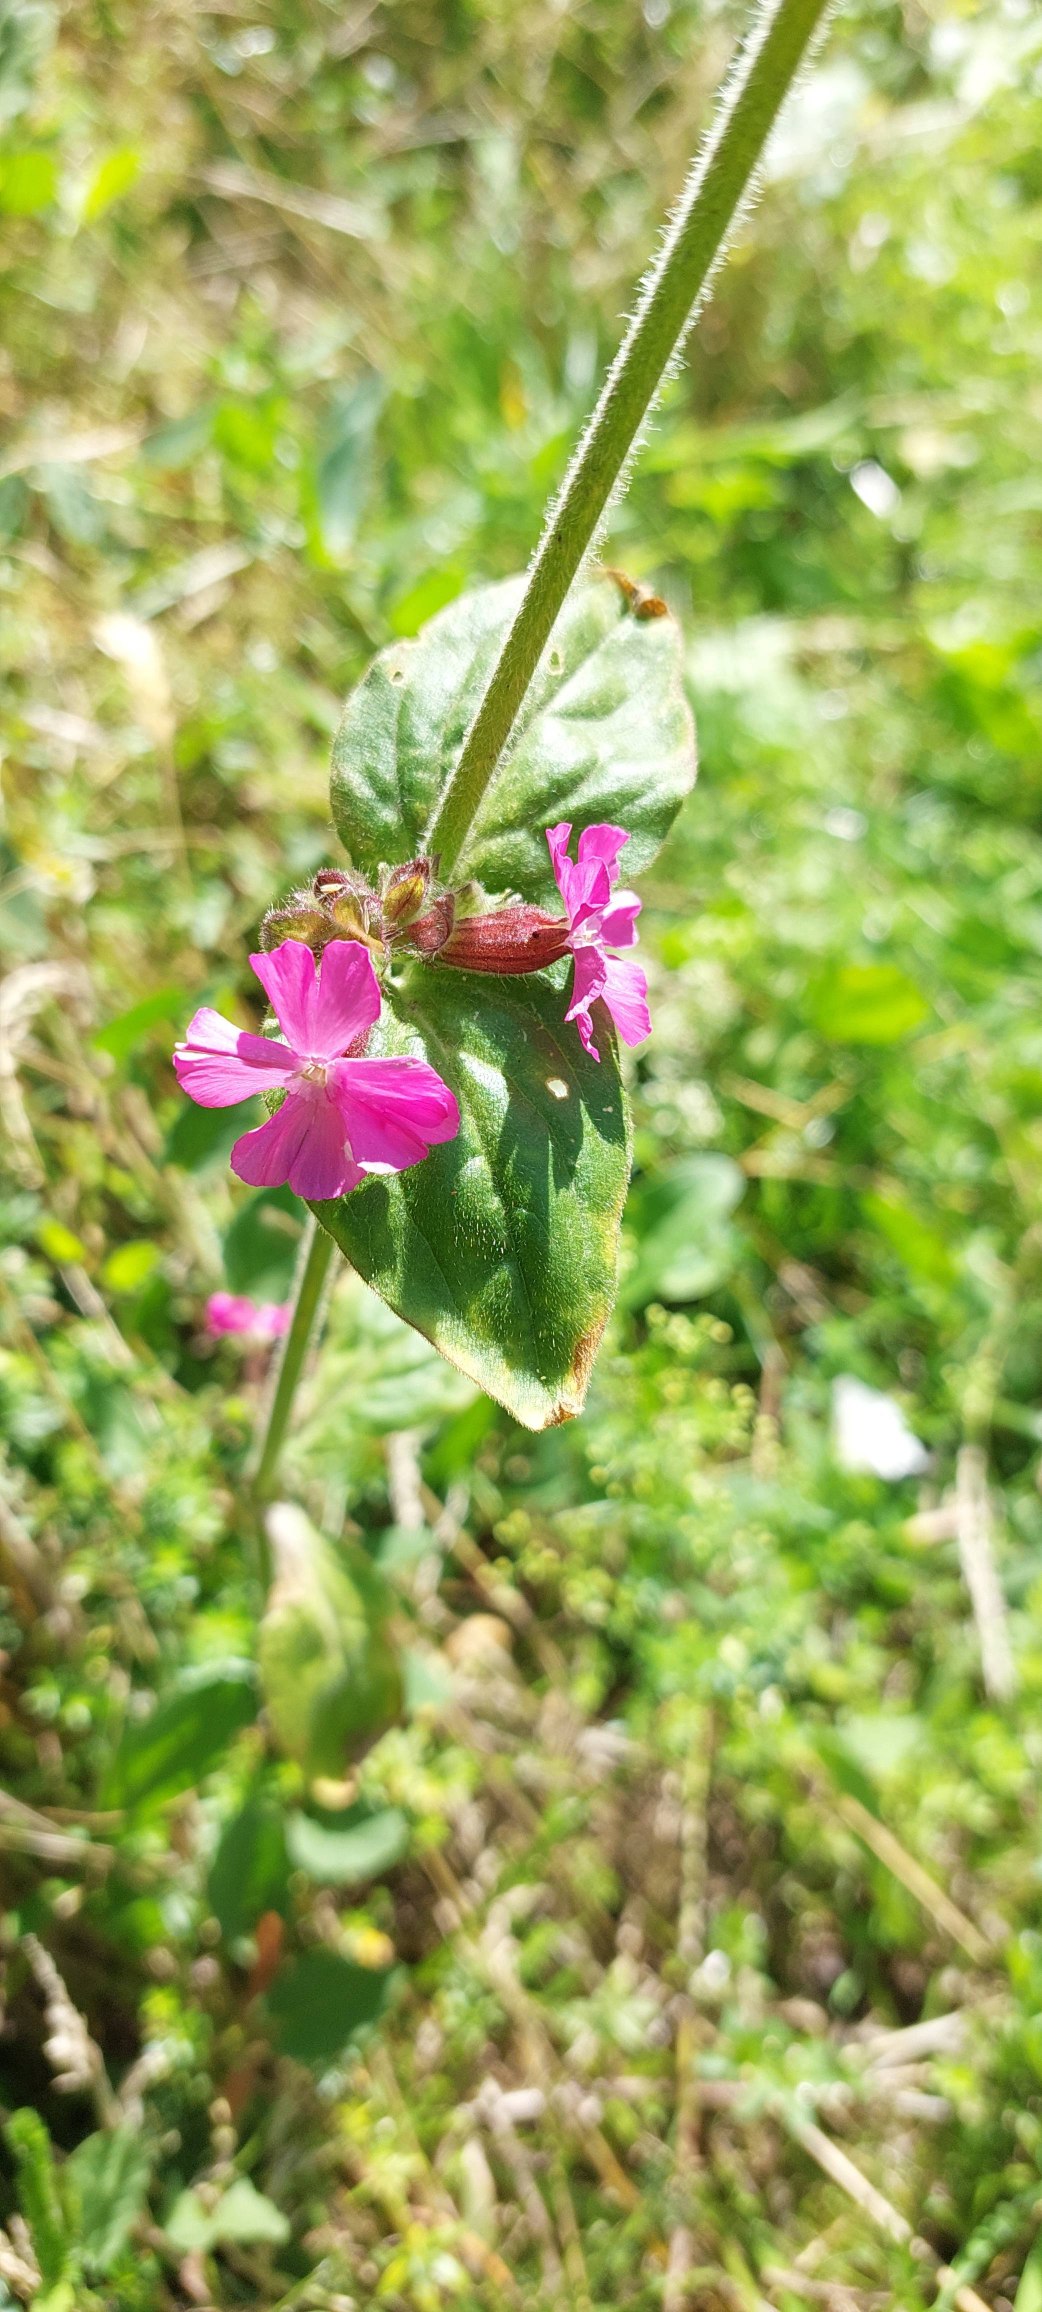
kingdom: Plantae
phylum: Tracheophyta
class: Magnoliopsida
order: Caryophyllales
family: Caryophyllaceae
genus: Silene
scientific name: Silene dioica
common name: Dagpragtstjerne
